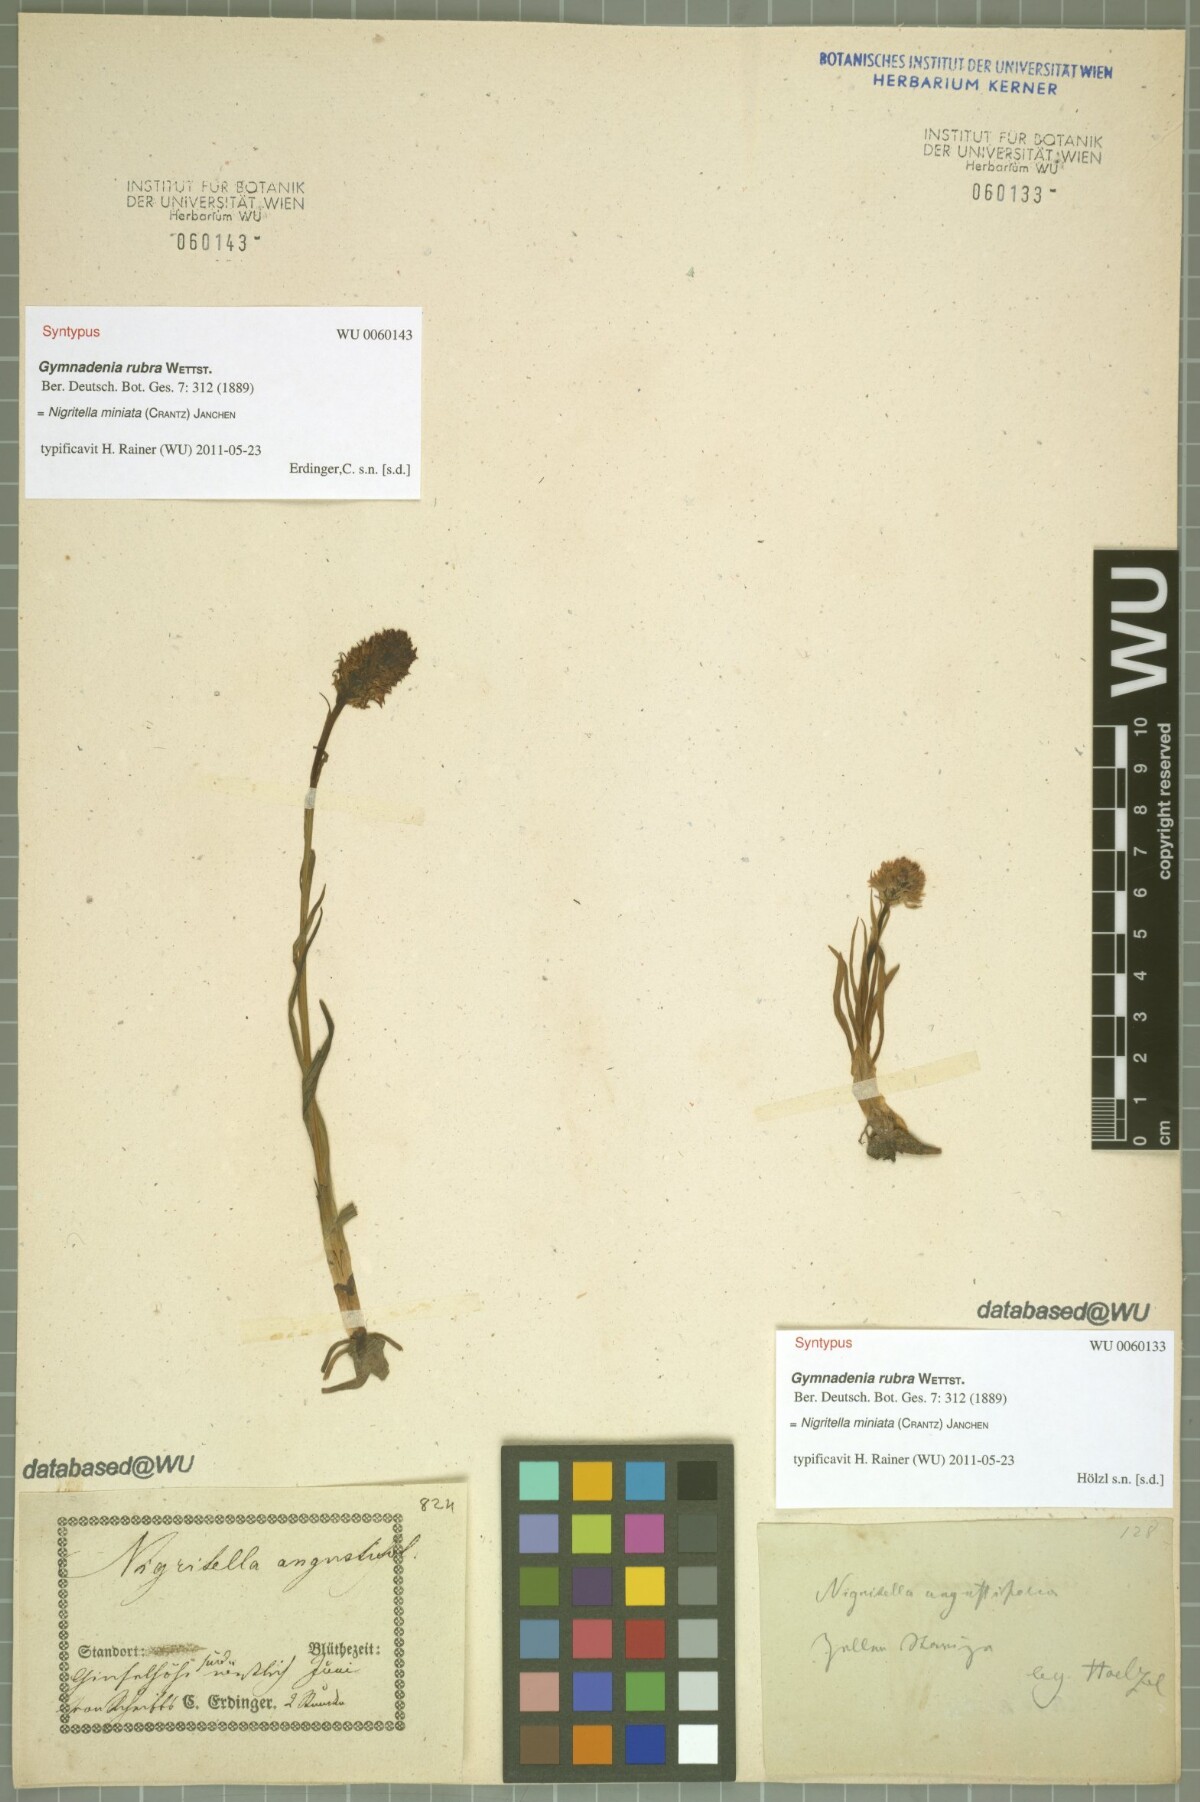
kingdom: Plantae
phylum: Tracheophyta
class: Liliopsida
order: Asparagales
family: Orchidaceae
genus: Gymnadenia
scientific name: Gymnadenia miniata
